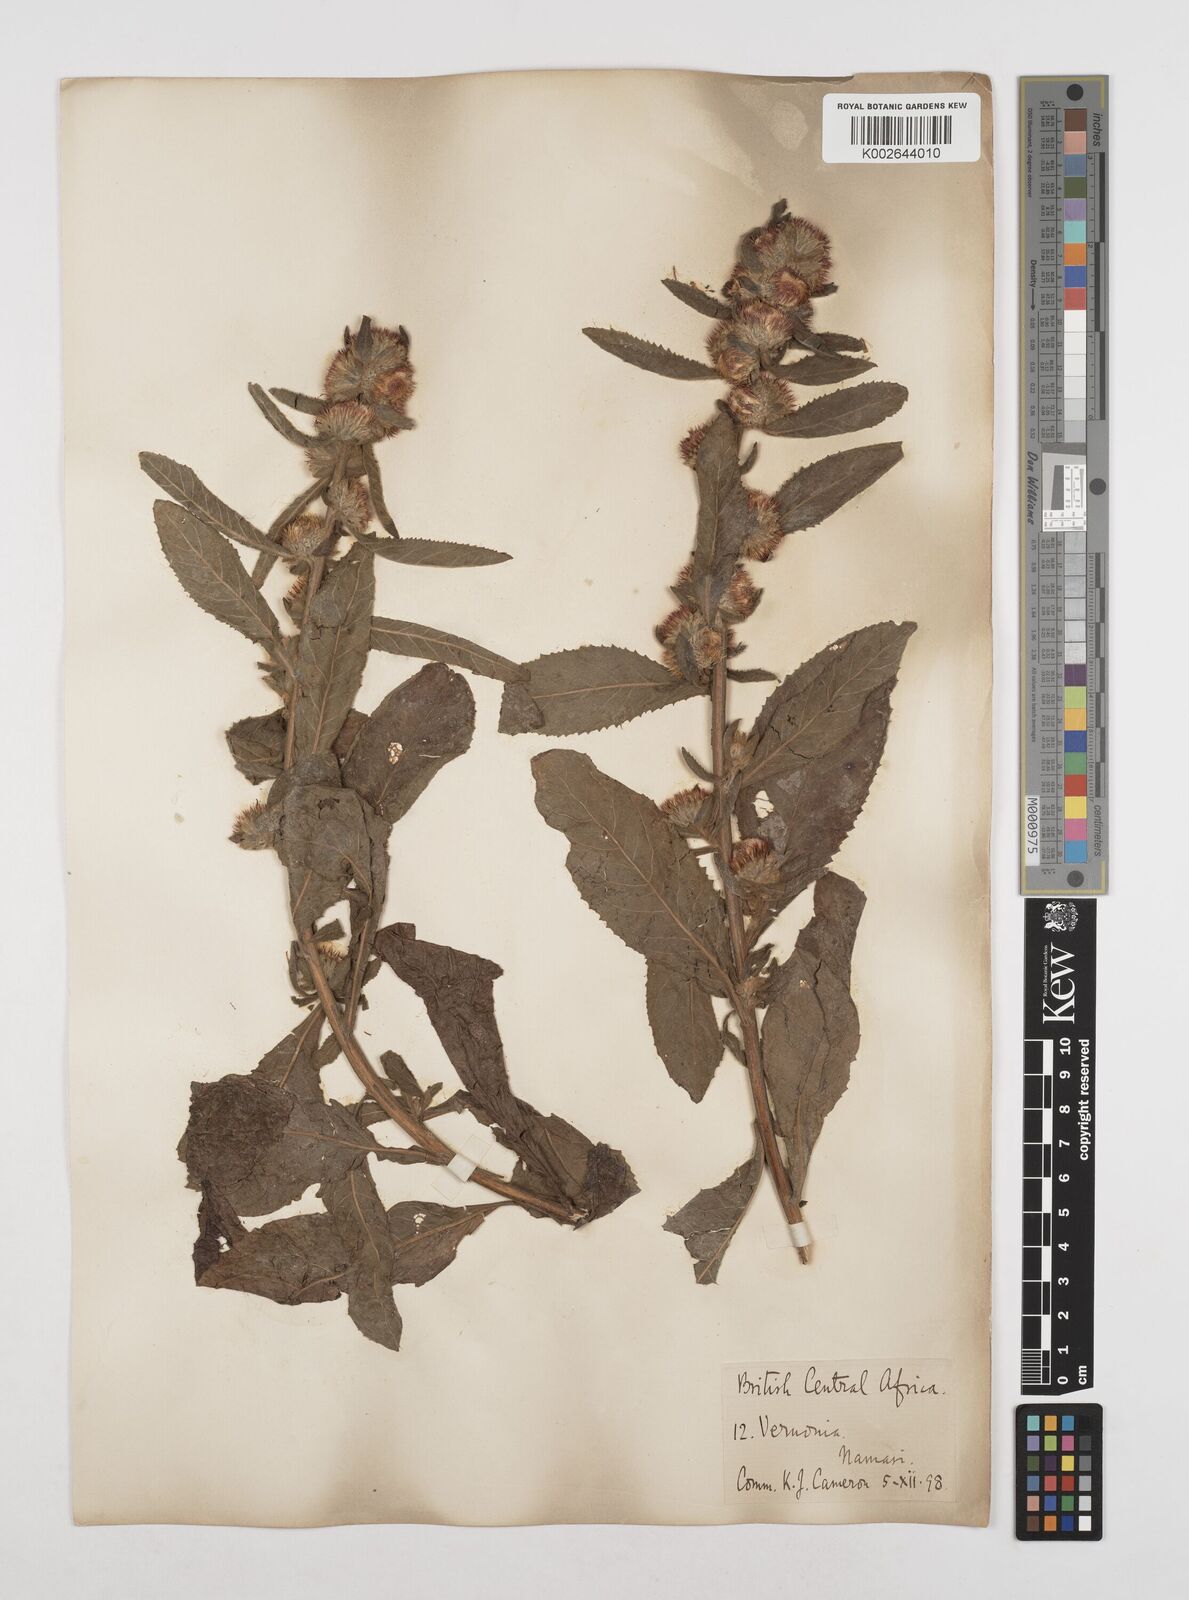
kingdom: Plantae
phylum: Tracheophyta
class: Magnoliopsida
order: Asterales
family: Asteraceae
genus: Laggera
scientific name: Laggera brevipes
